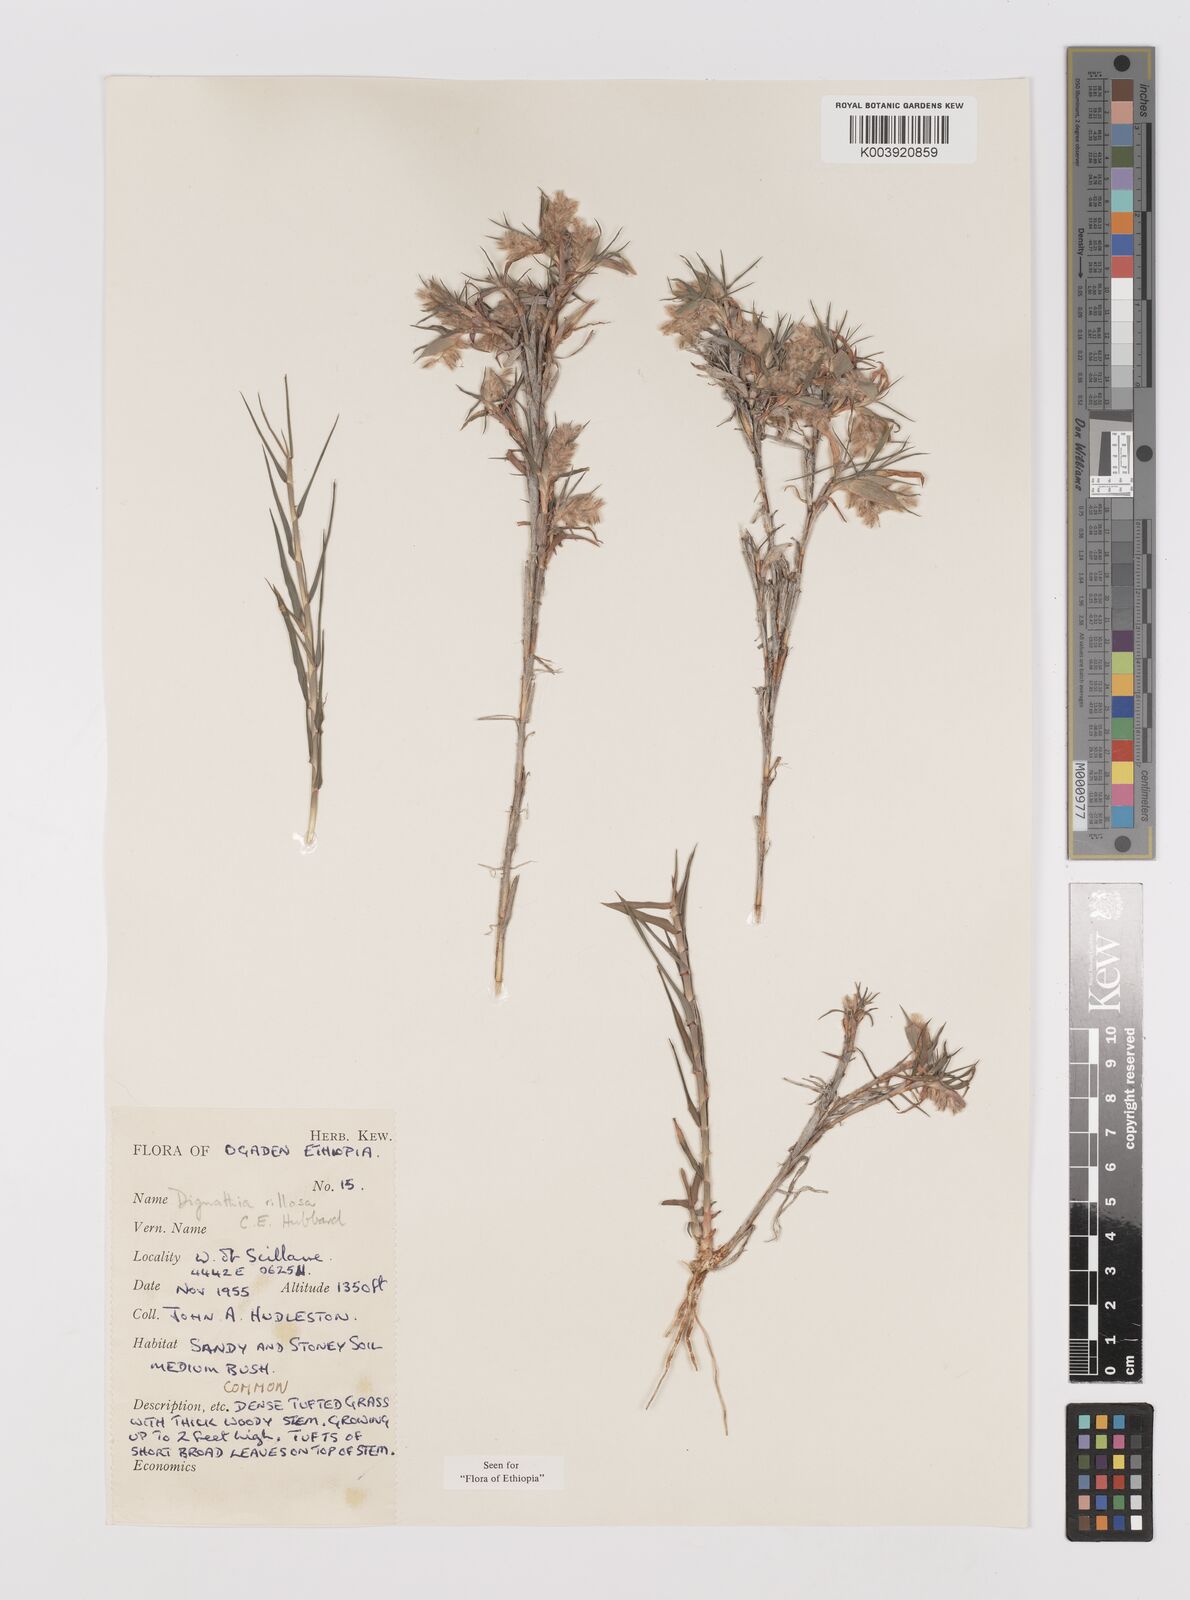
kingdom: Plantae
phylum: Tracheophyta
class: Liliopsida
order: Poales
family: Poaceae
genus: Dignathia
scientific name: Dignathia villosa
